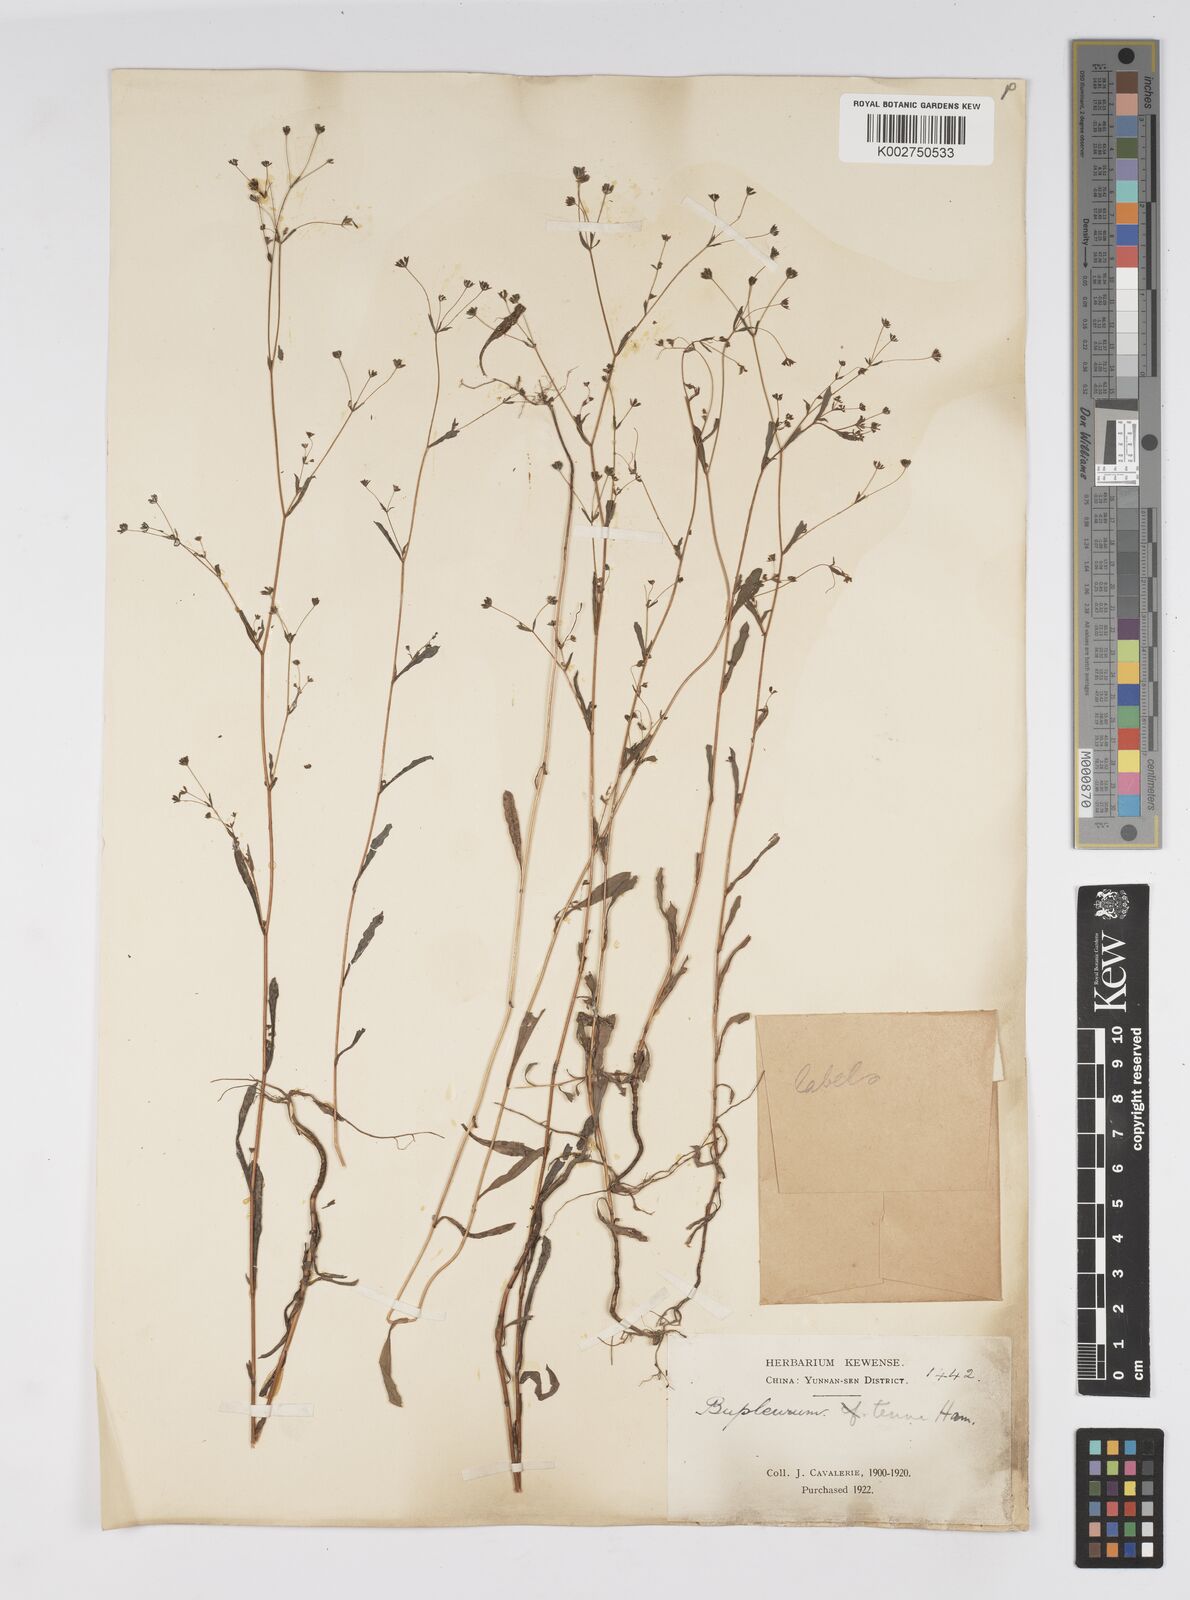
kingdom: Plantae
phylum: Tracheophyta
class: Magnoliopsida
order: Apiales
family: Apiaceae
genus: Bupleurum
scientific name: Bupleurum hamiltonii
